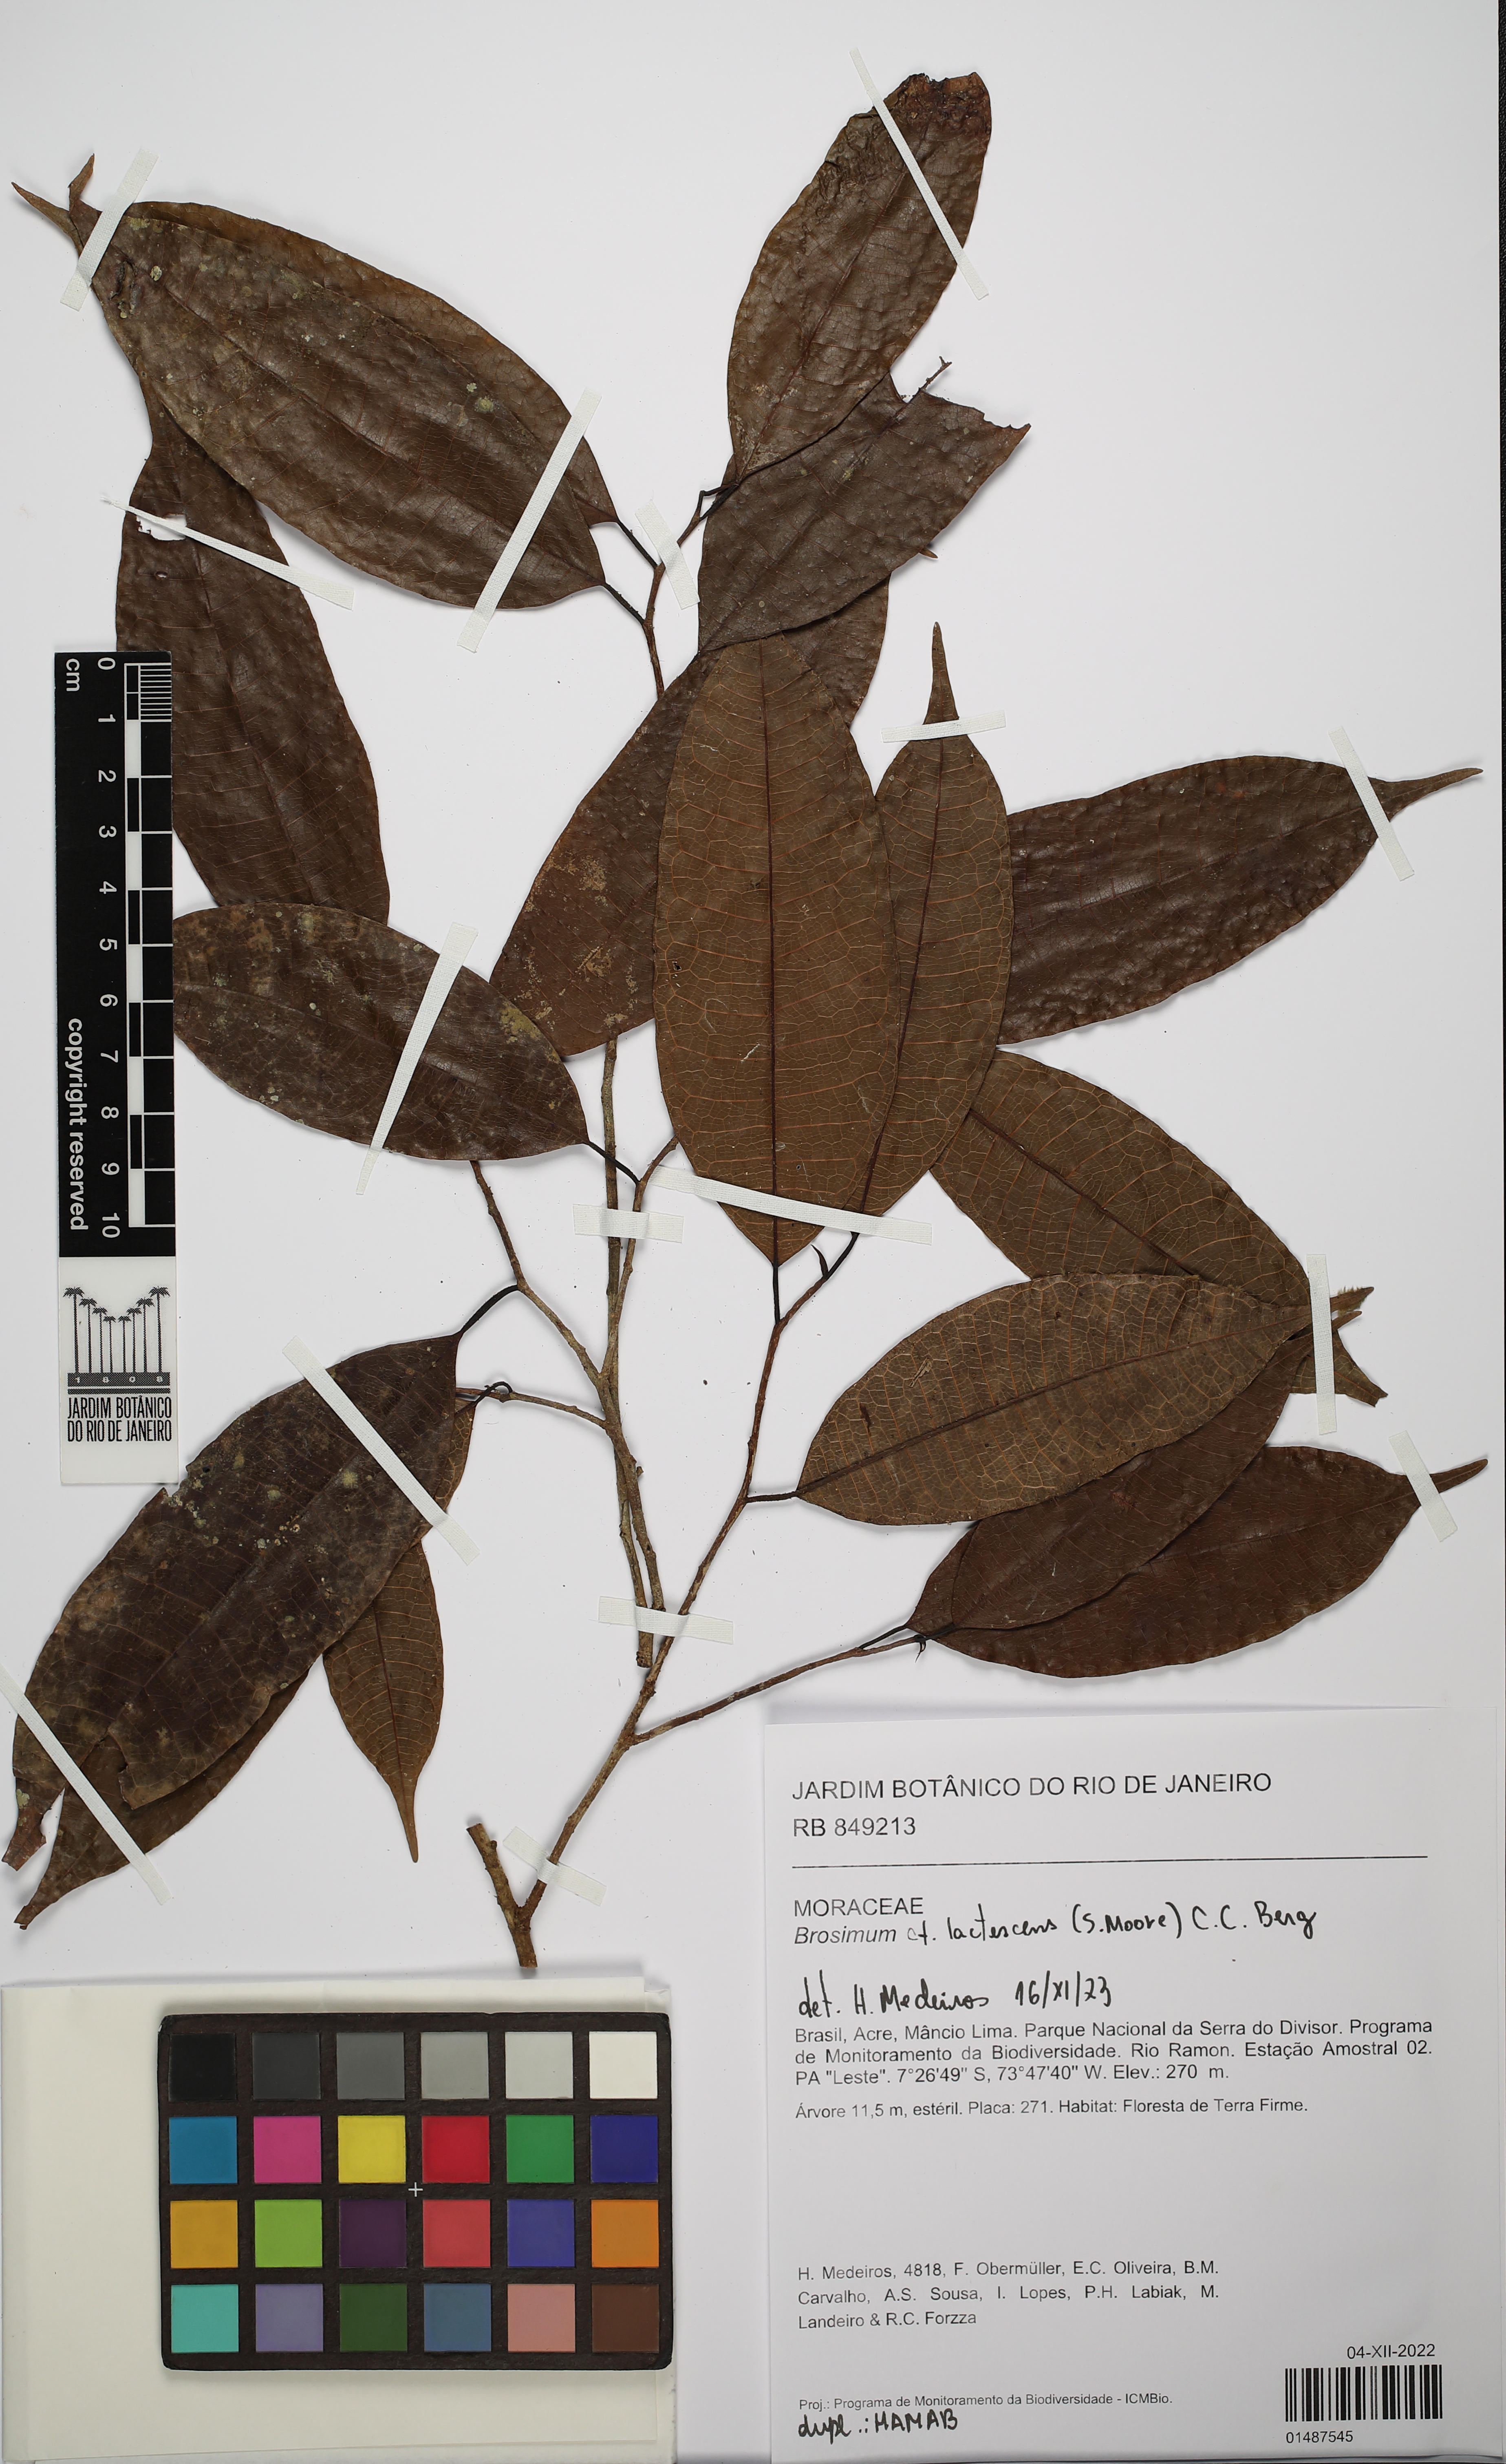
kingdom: Plantae
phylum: Tracheophyta
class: Magnoliopsida
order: Rosales
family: Moraceae
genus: Brosimum
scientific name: Brosimum lactescens
